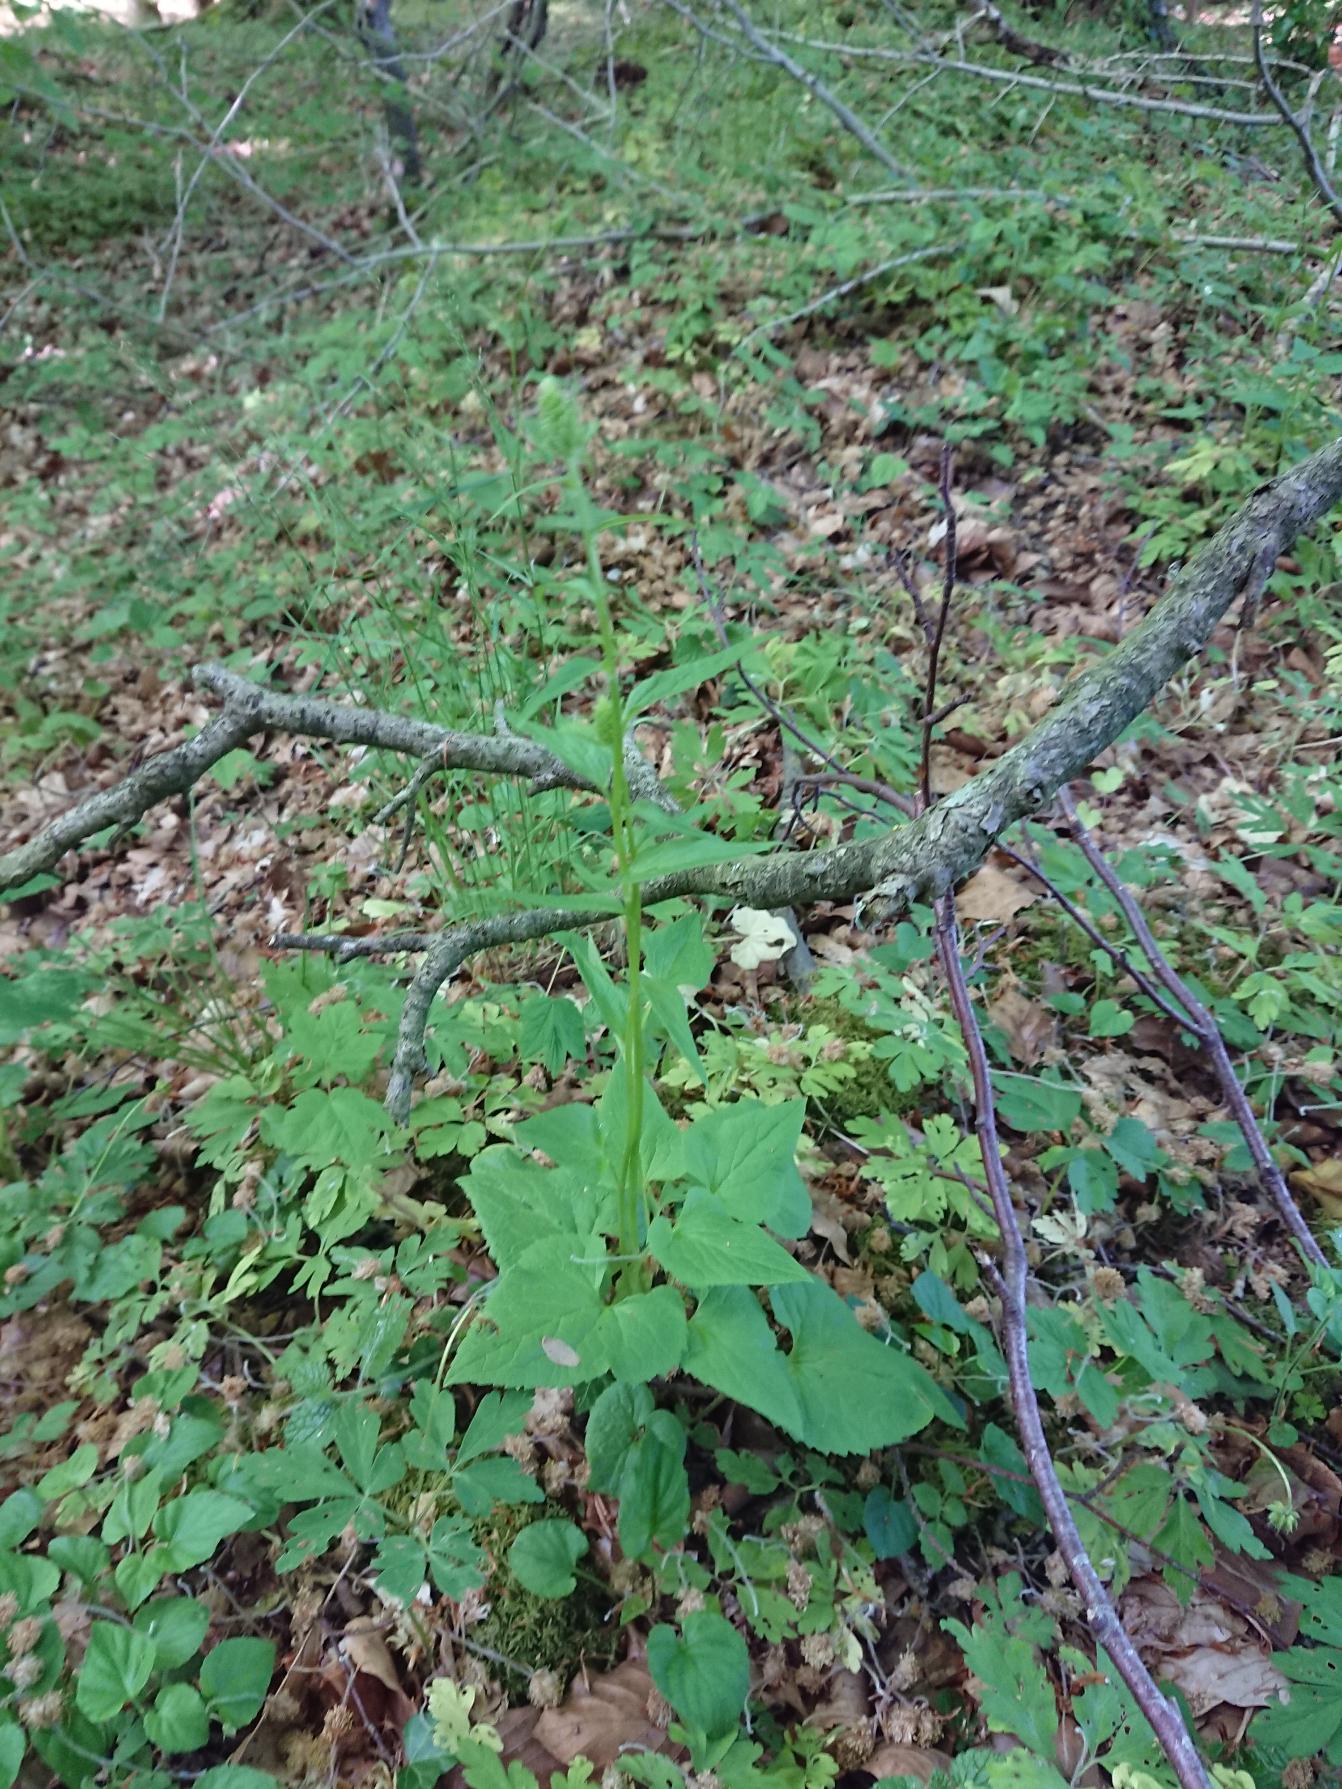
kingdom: Plantae
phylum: Tracheophyta
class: Magnoliopsida
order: Asterales
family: Campanulaceae
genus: Phyteuma
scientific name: Phyteuma spicatum
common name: Aks-rapunsel
